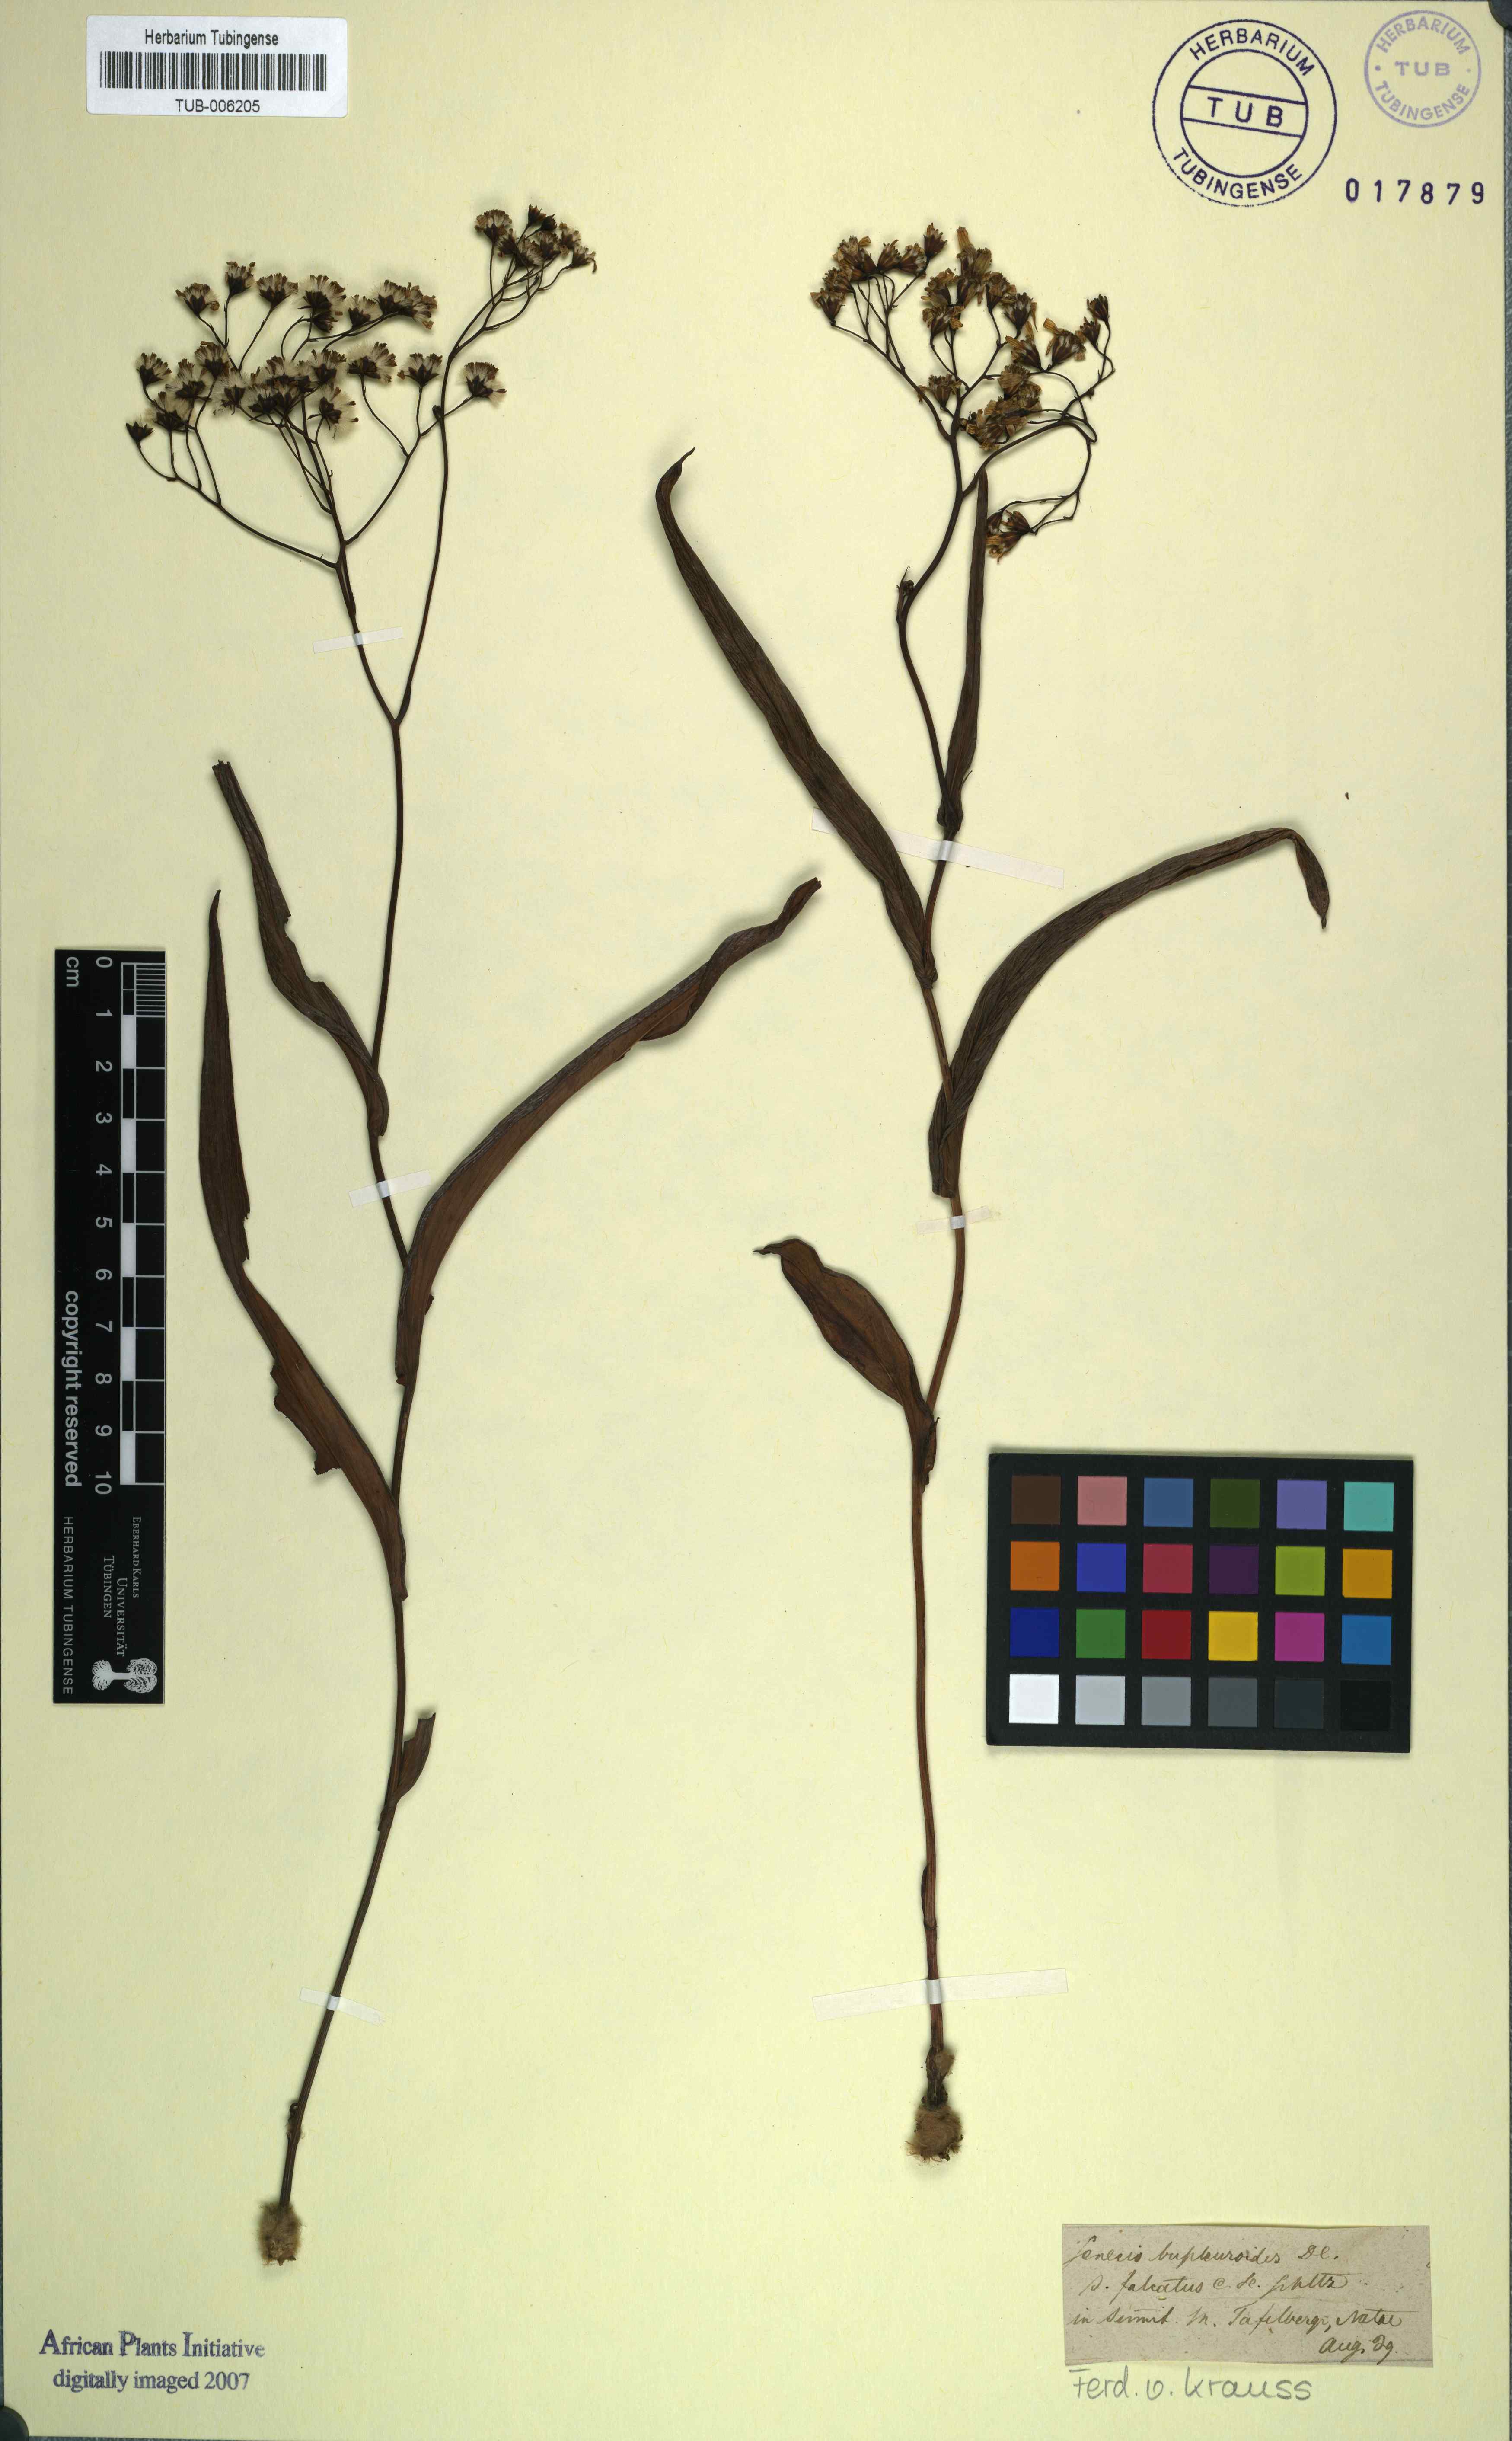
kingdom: Plantae
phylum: Tracheophyta
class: Magnoliopsida
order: Asterales
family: Asteraceae
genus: Senecio
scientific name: Senecio bupleuroides
